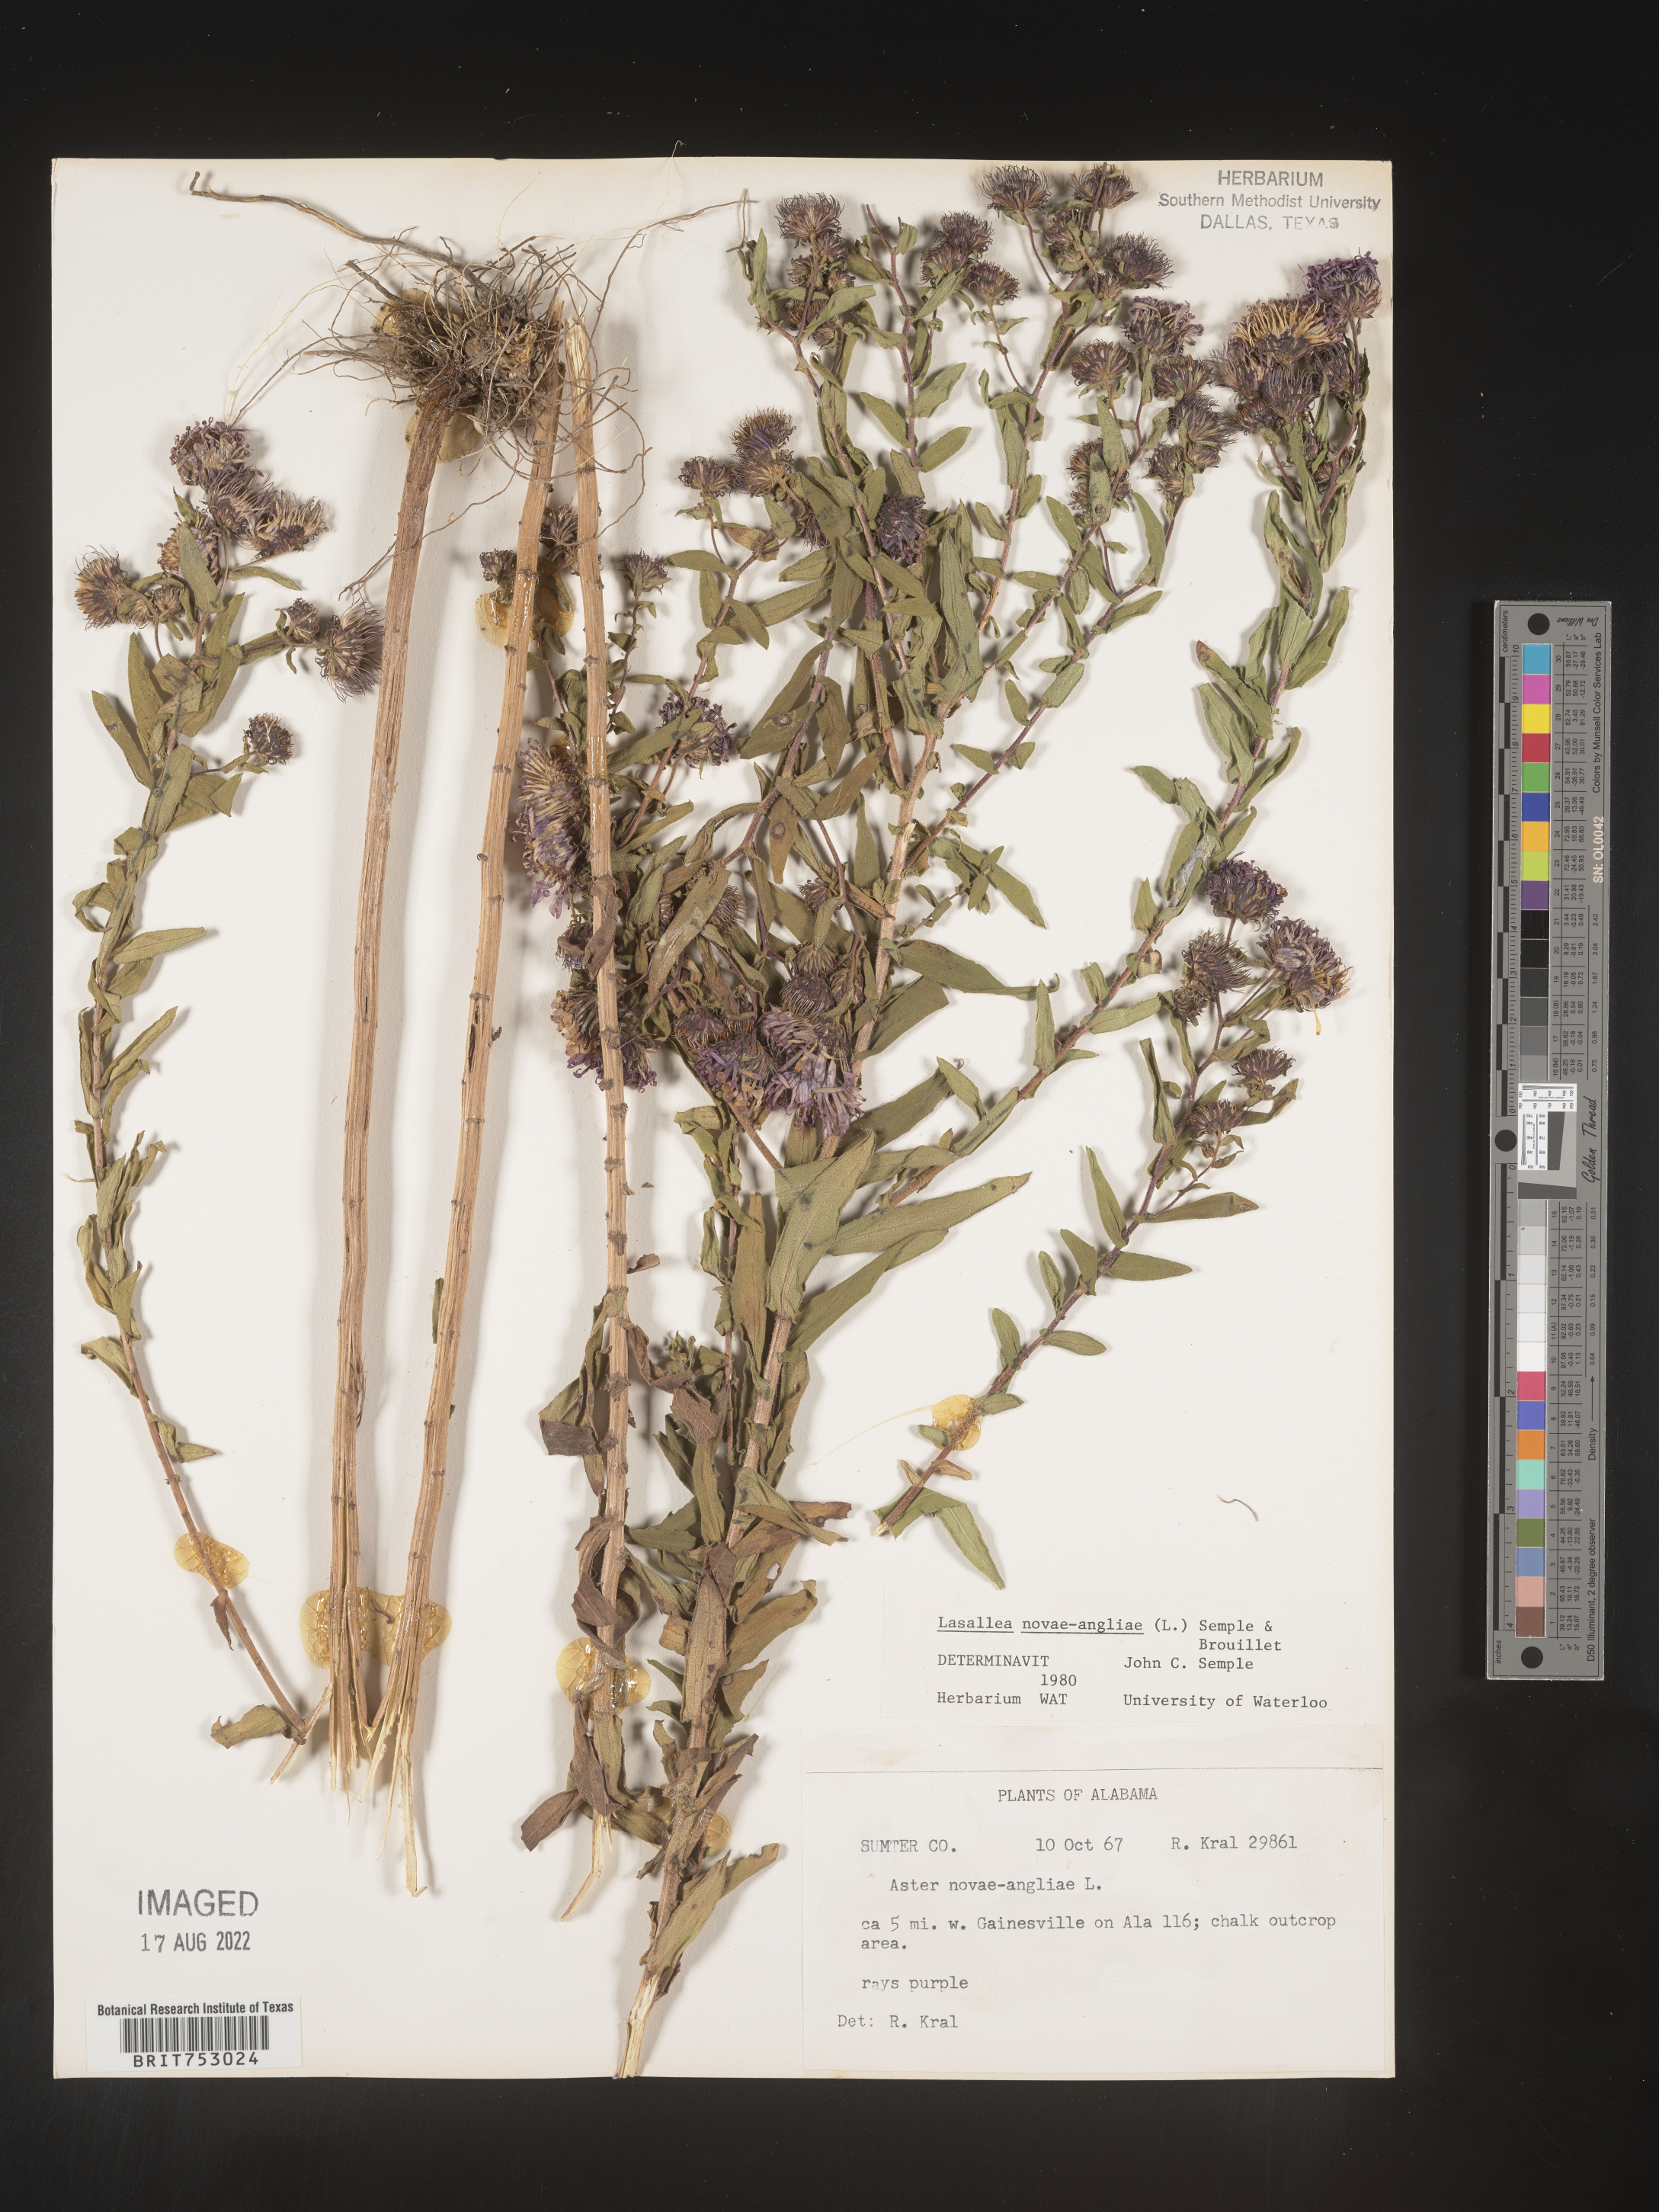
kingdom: Plantae
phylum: Tracheophyta
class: Magnoliopsida
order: Asterales
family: Asteraceae
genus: Symphyotrichum
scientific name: Symphyotrichum novae-angliae
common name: Michaelmas daisy
